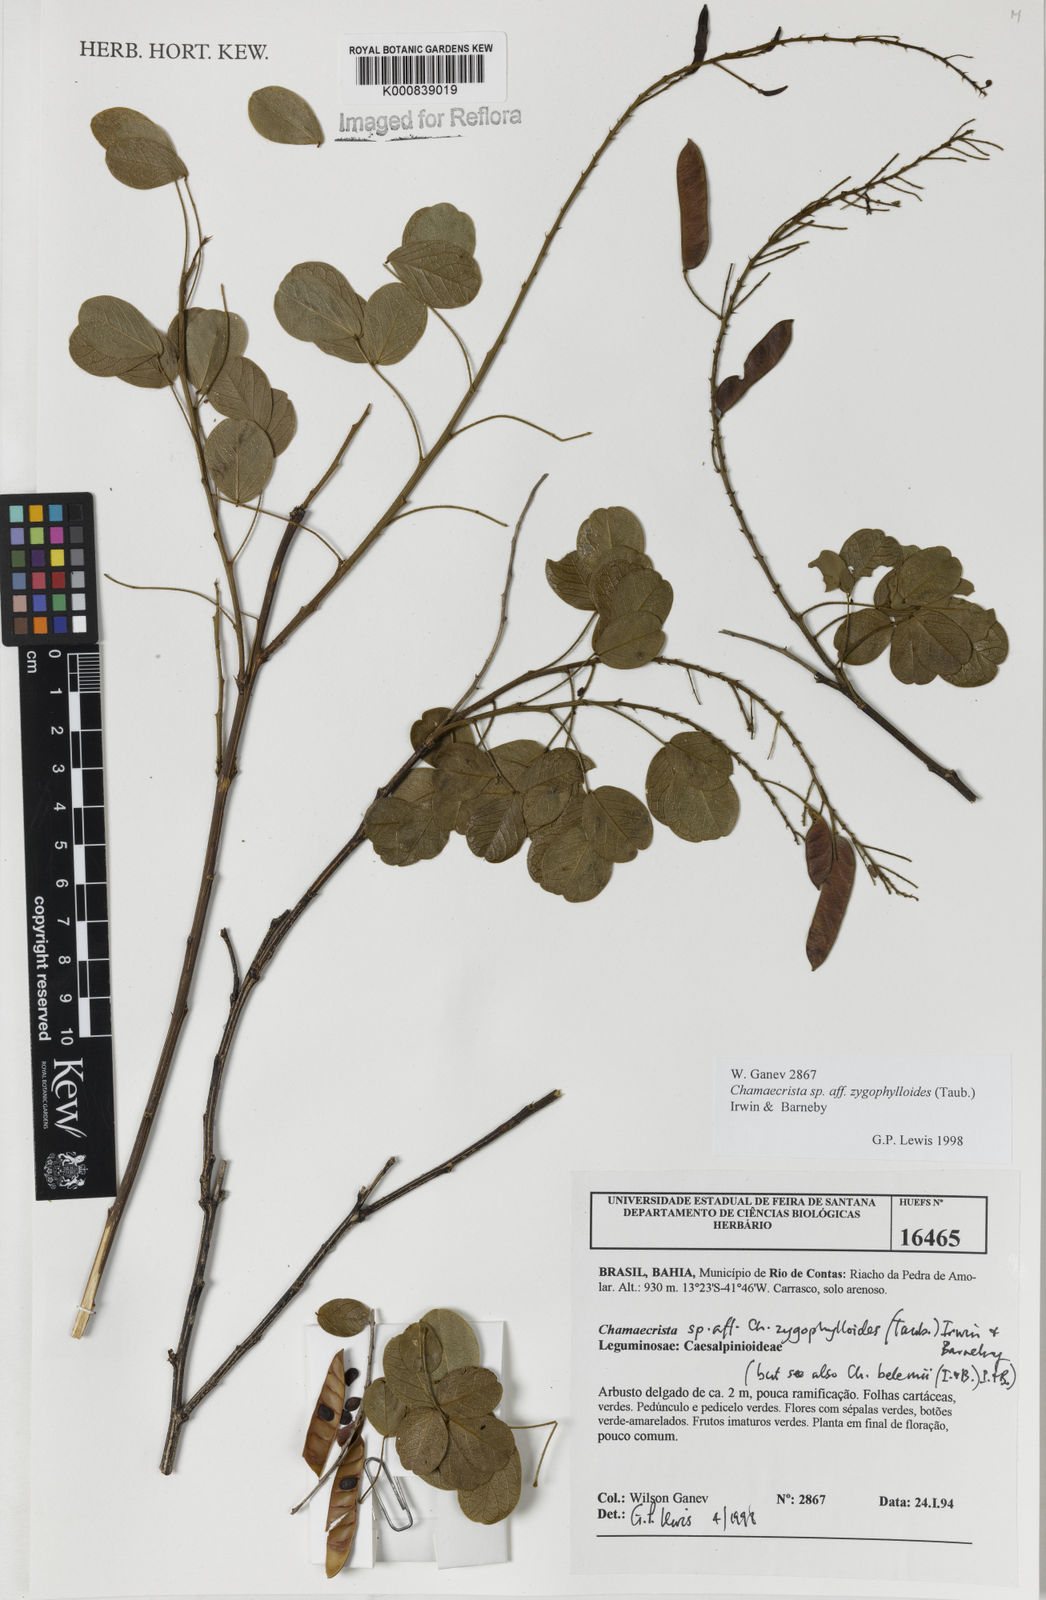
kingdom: Plantae
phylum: Tracheophyta
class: Magnoliopsida
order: Fabales
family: Fabaceae
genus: Chamaecrista
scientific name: Chamaecrista zygophylloides
